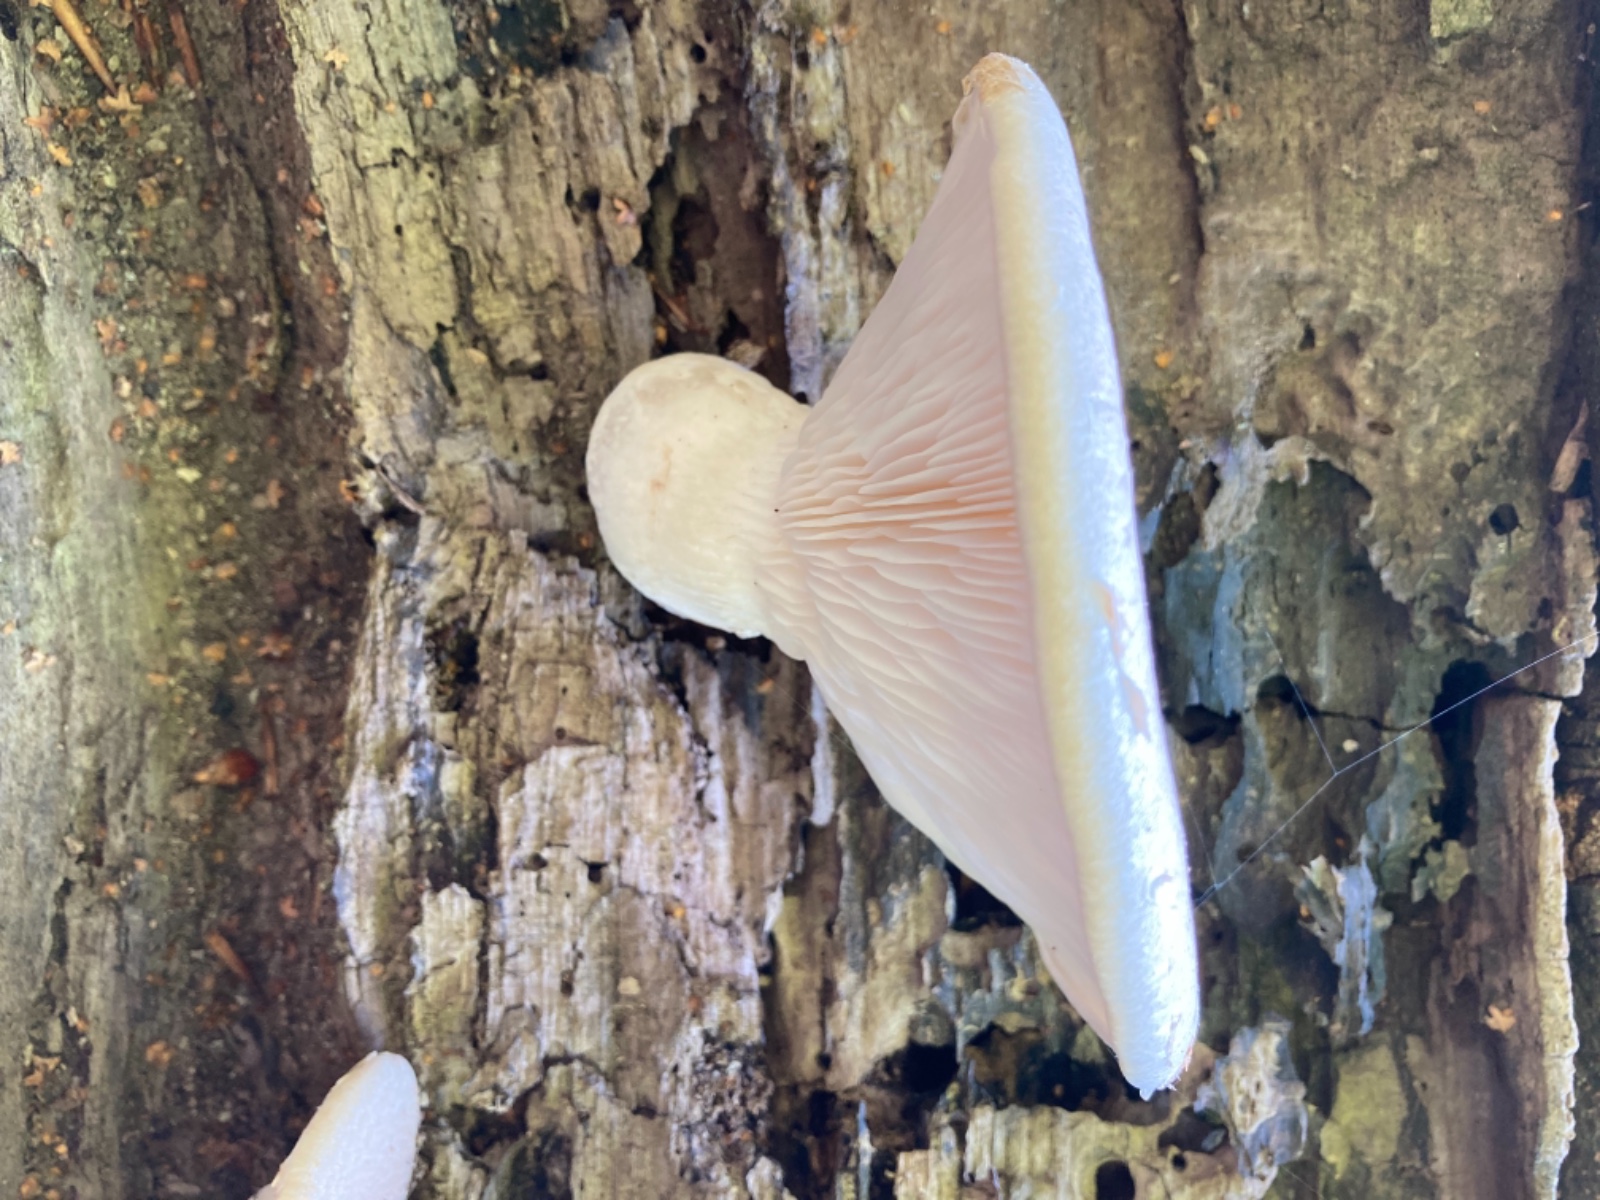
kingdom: Fungi
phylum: Basidiomycota
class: Agaricomycetes
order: Agaricales
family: Pleurotaceae
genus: Pleurotus
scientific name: Pleurotus dryinus
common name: korkagtig østershat
